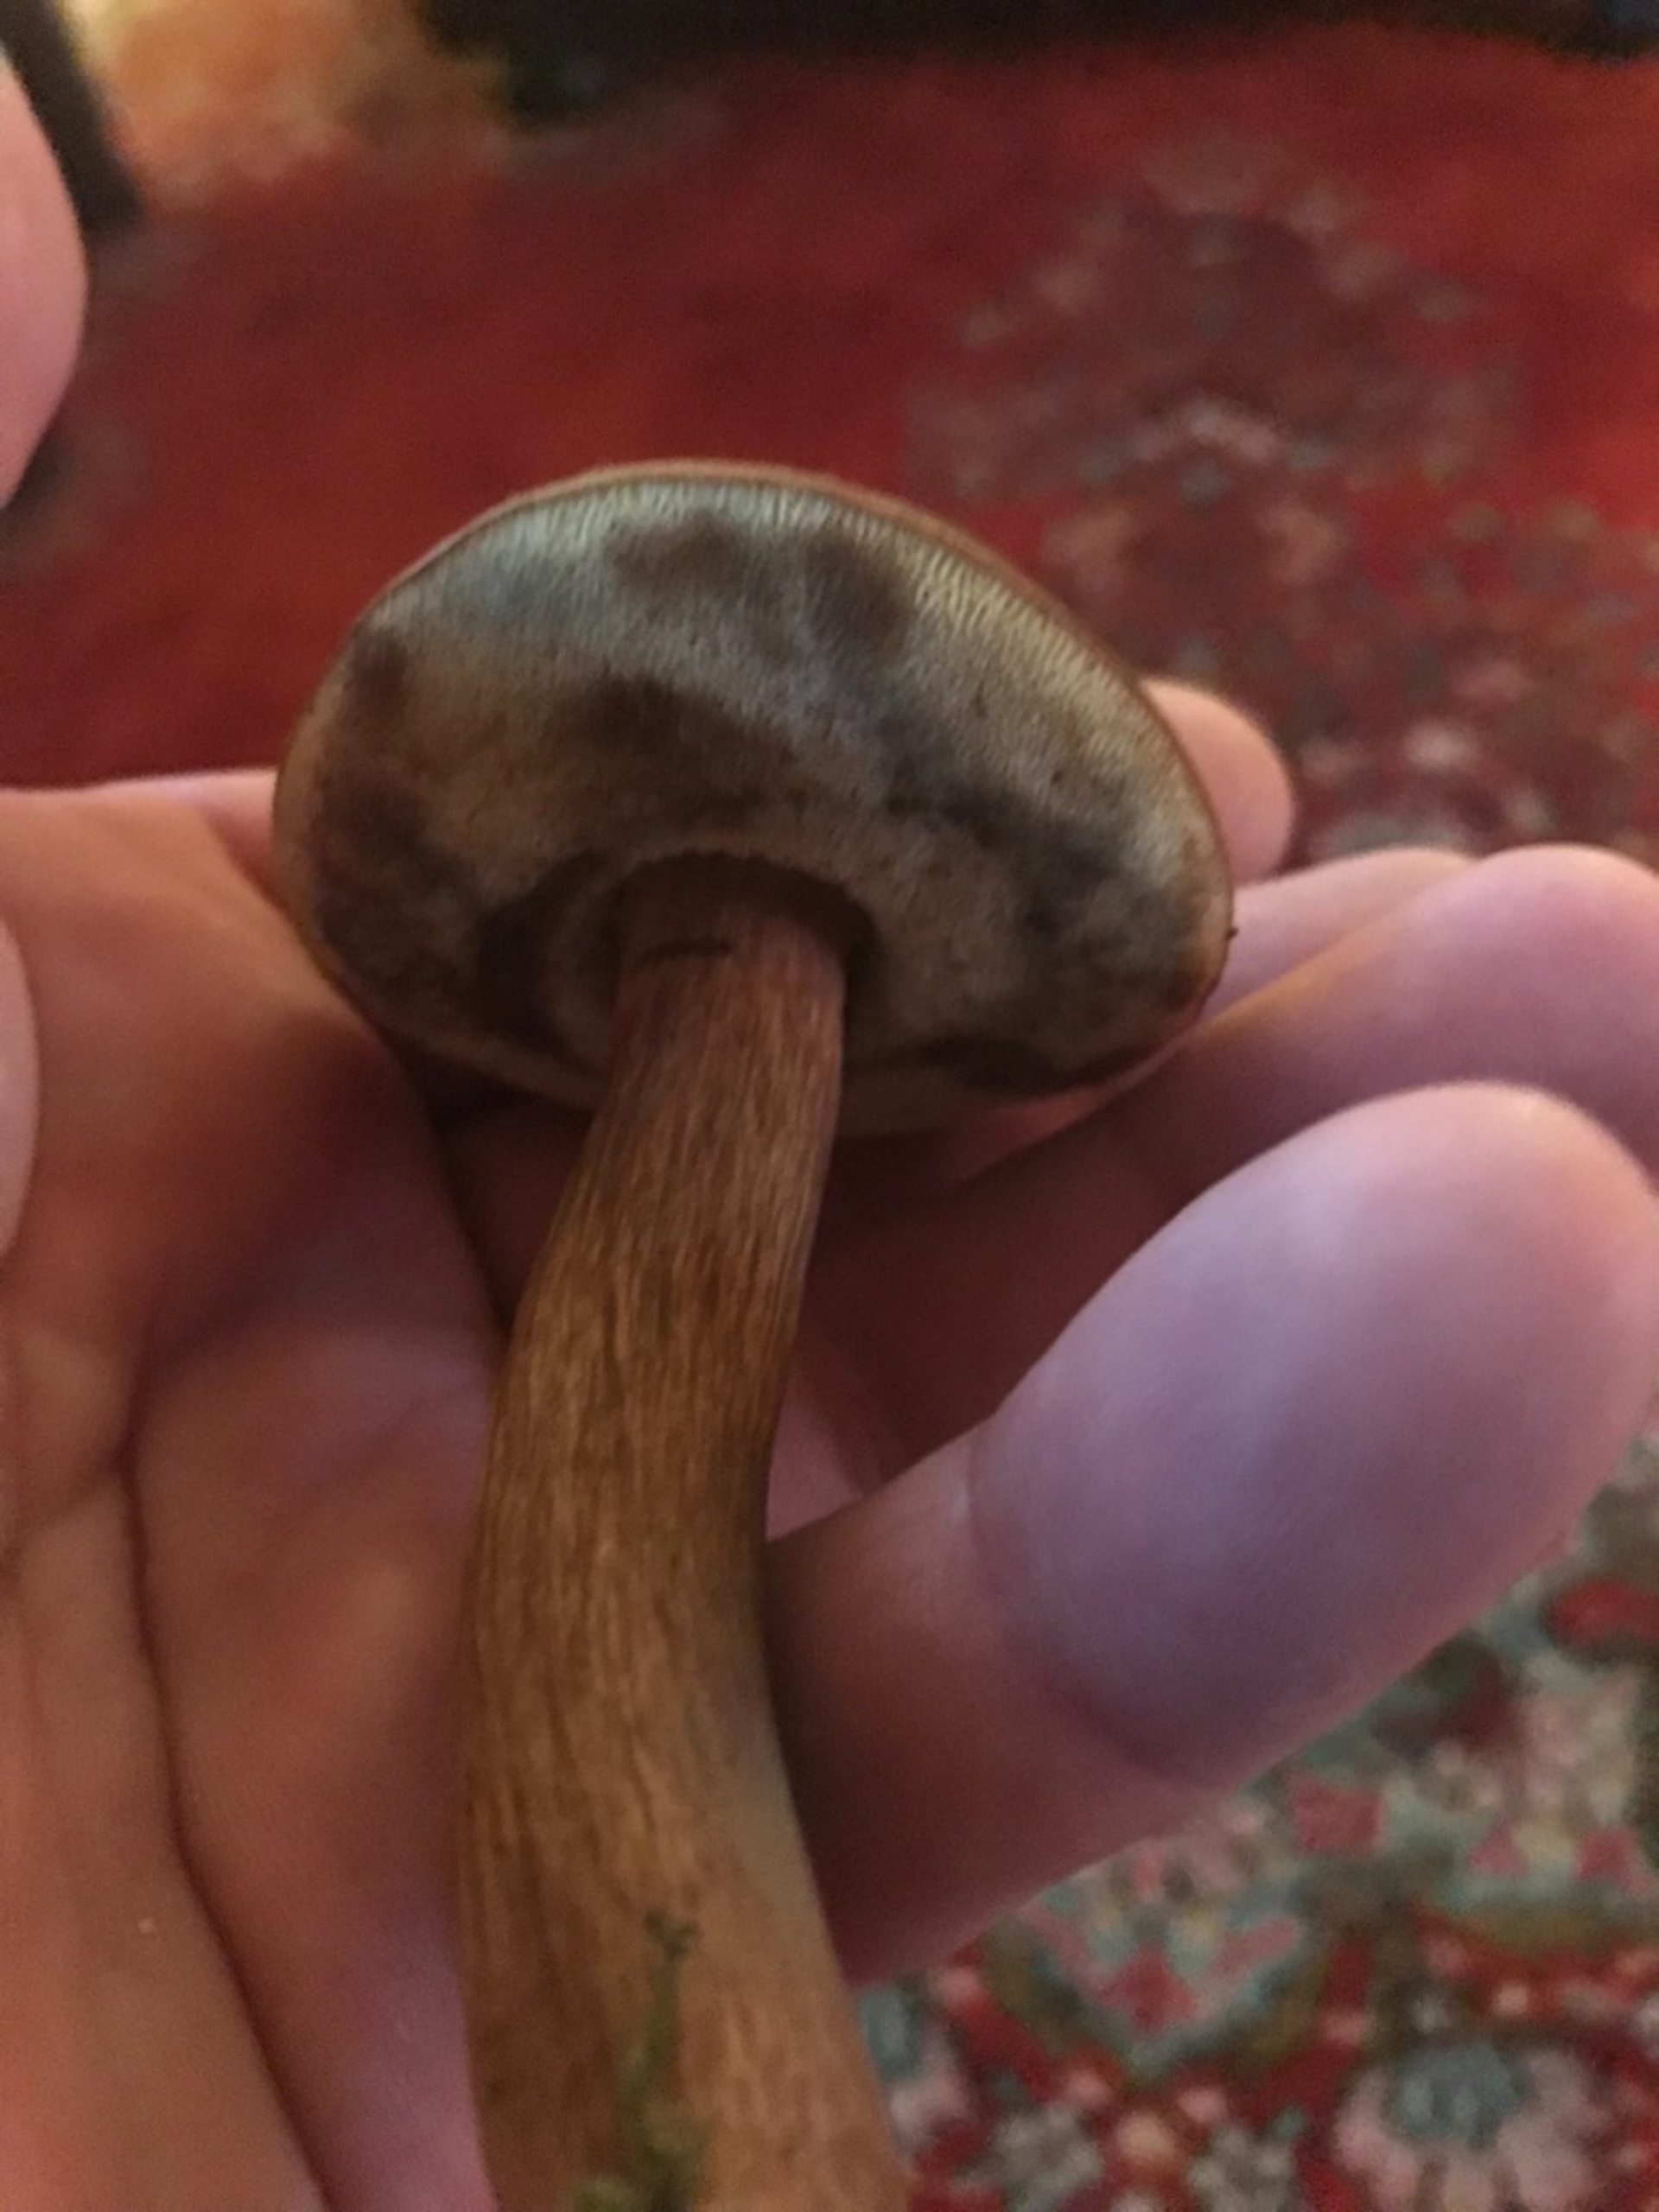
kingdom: Fungi
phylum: Basidiomycota
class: Agaricomycetes
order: Boletales
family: Boletaceae
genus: Imleria
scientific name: Imleria badia
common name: Brunstokket rørhat
